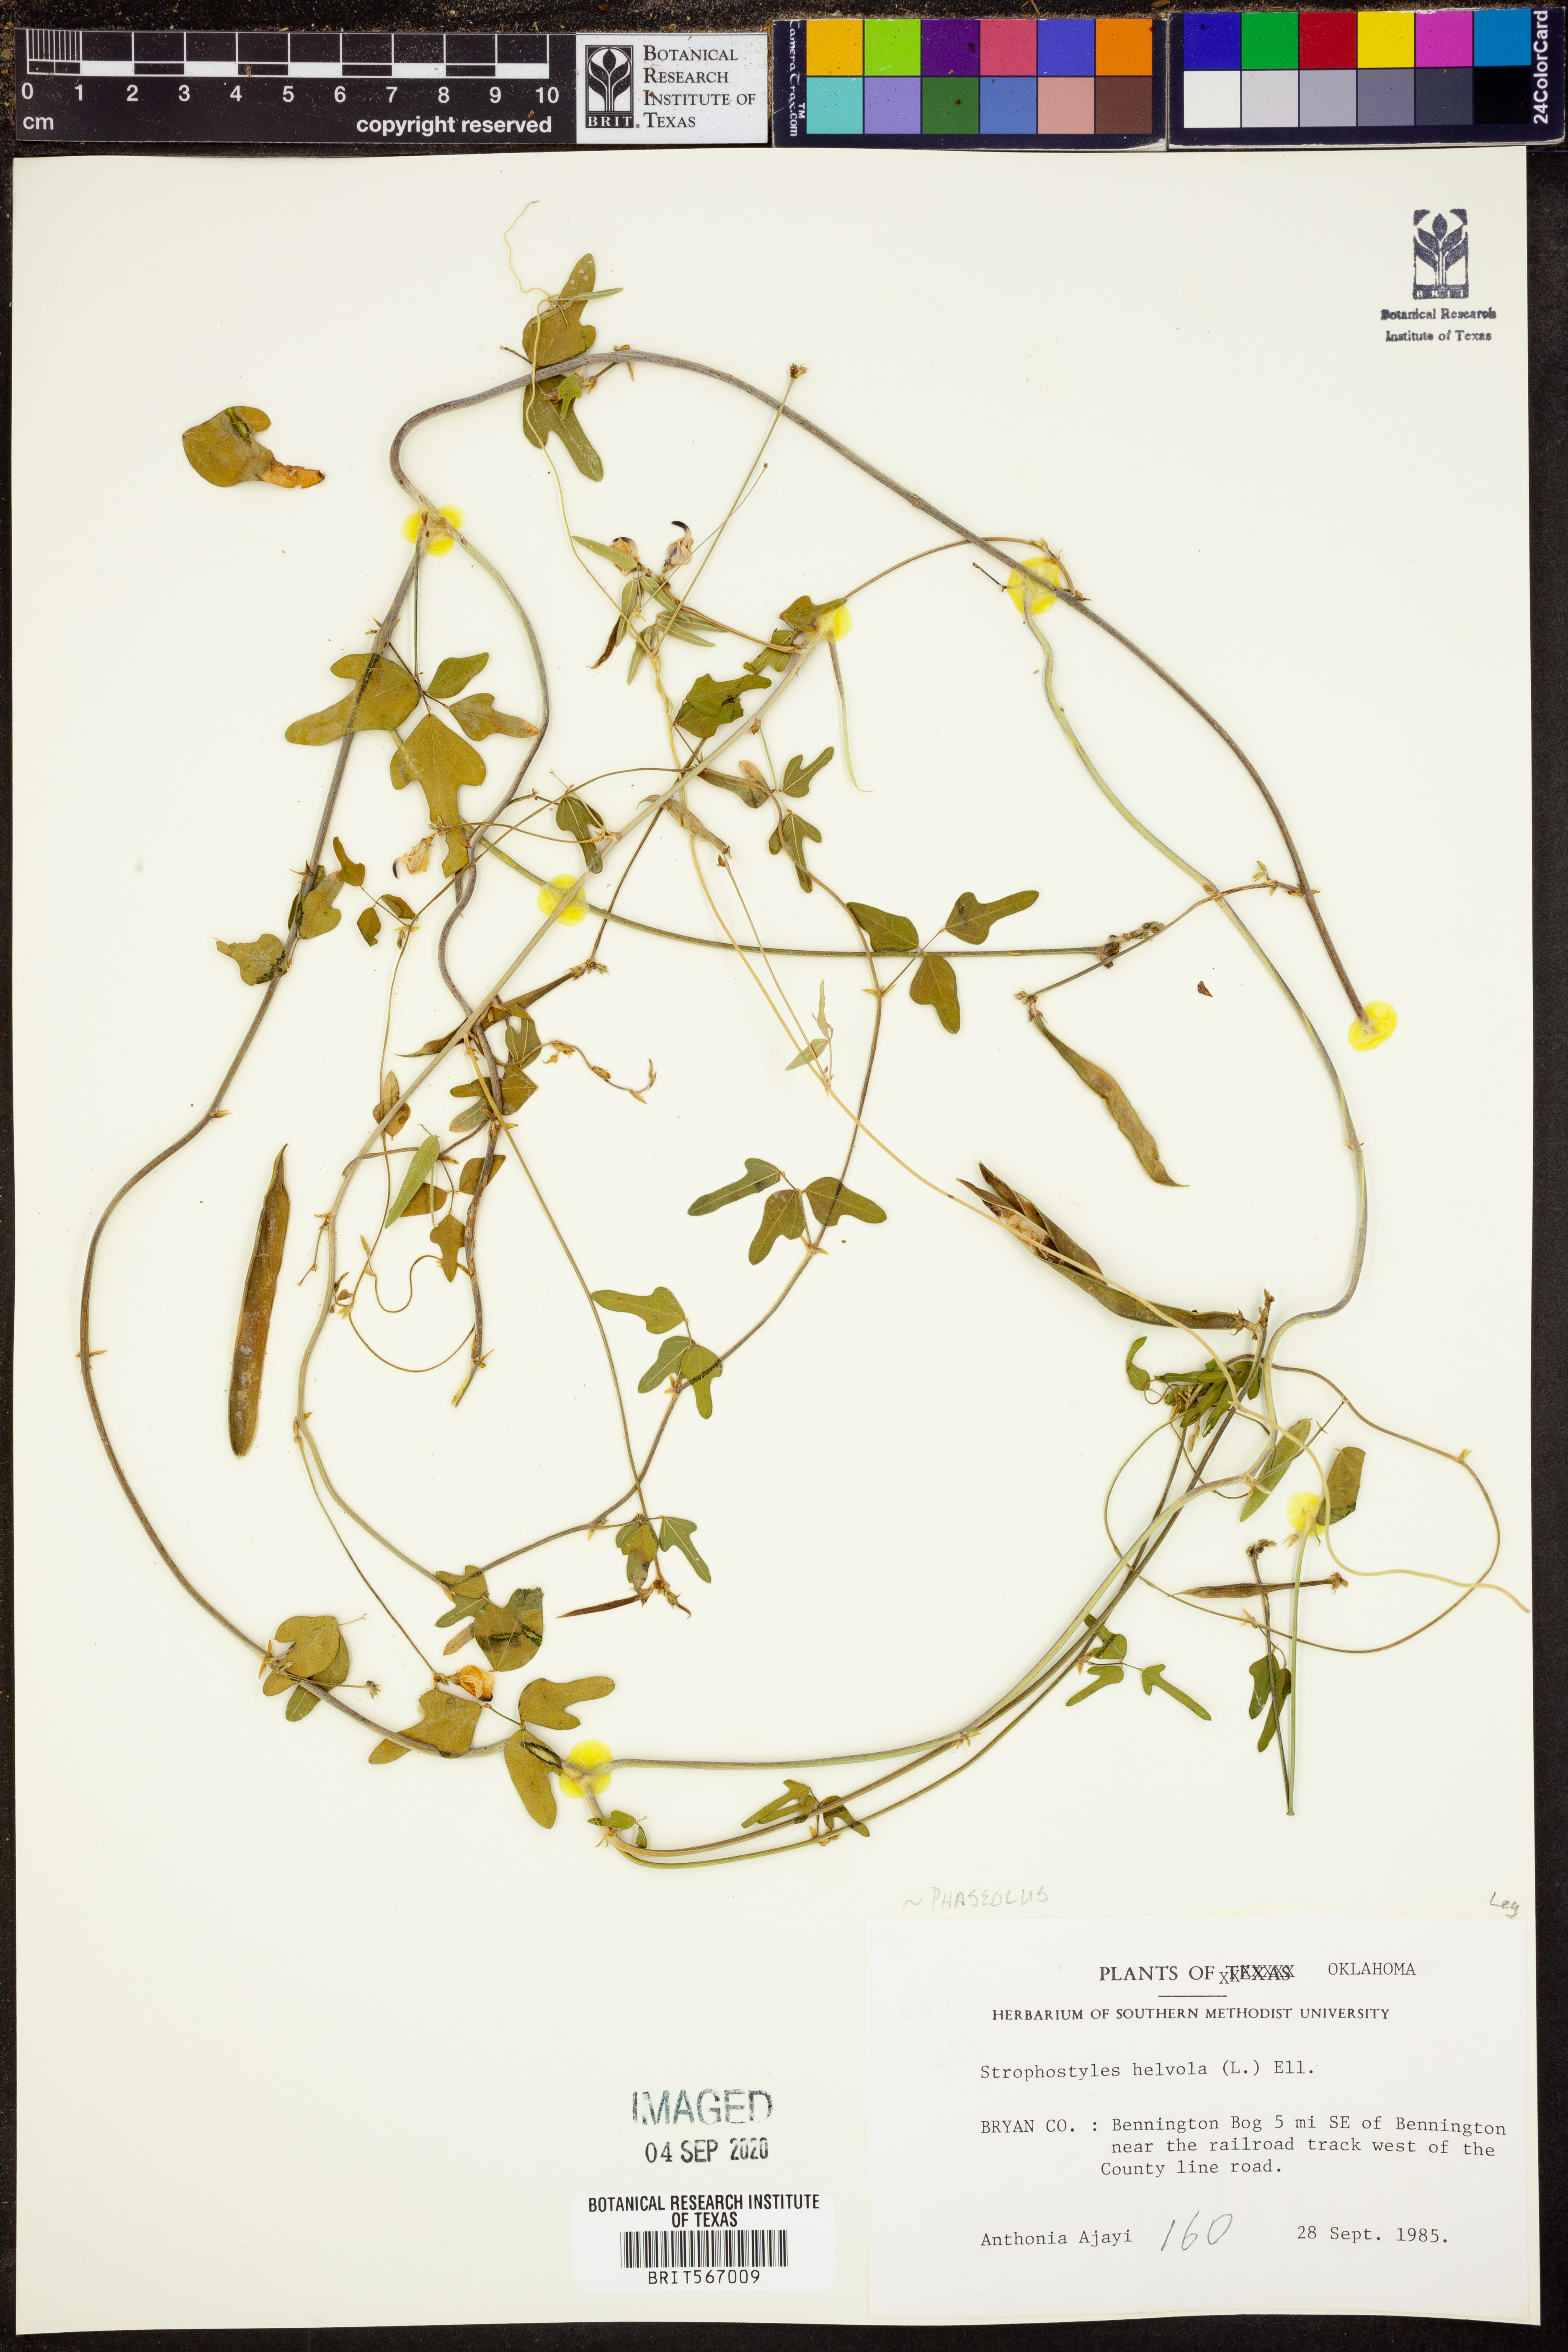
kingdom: Plantae
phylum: Tracheophyta
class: Magnoliopsida
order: Fabales
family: Fabaceae
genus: Strophostyles
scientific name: Strophostyles helvola
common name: Trailing wild bean
